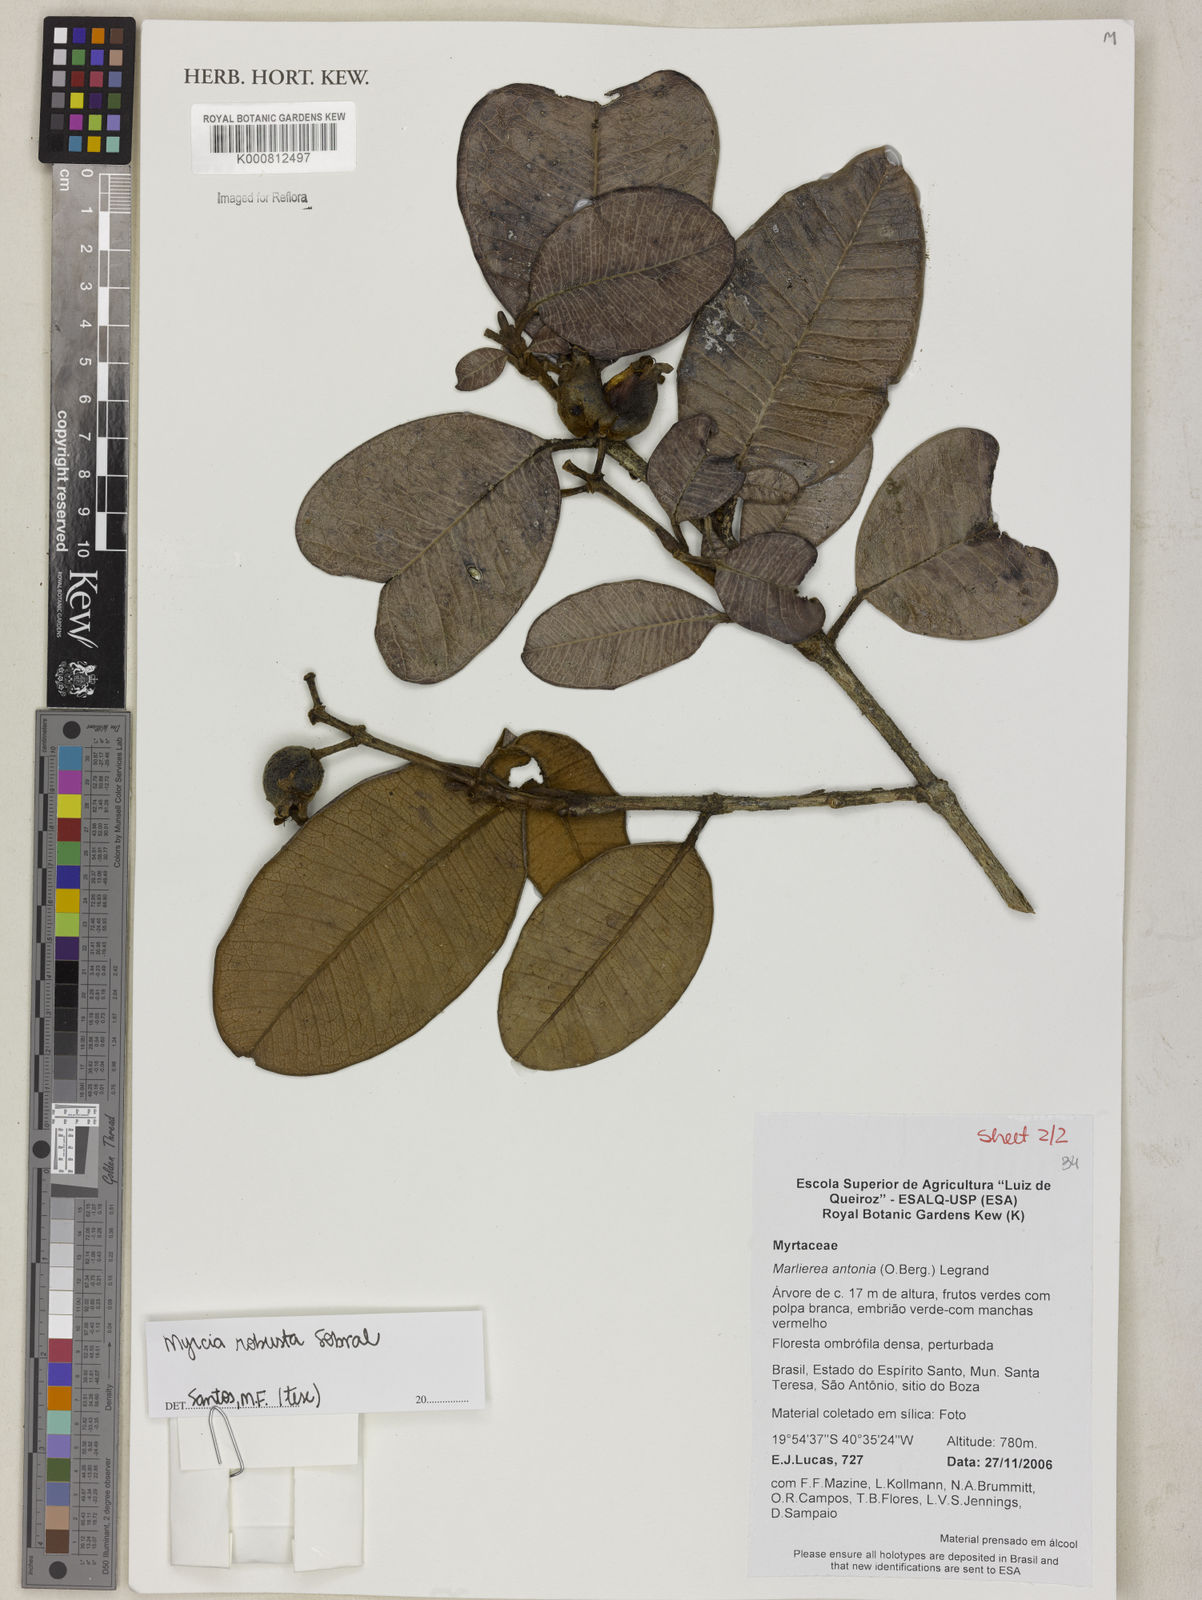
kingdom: Plantae
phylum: Tracheophyta
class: Magnoliopsida
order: Myrtales
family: Myrtaceae
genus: Marlierea
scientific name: Marlierea
